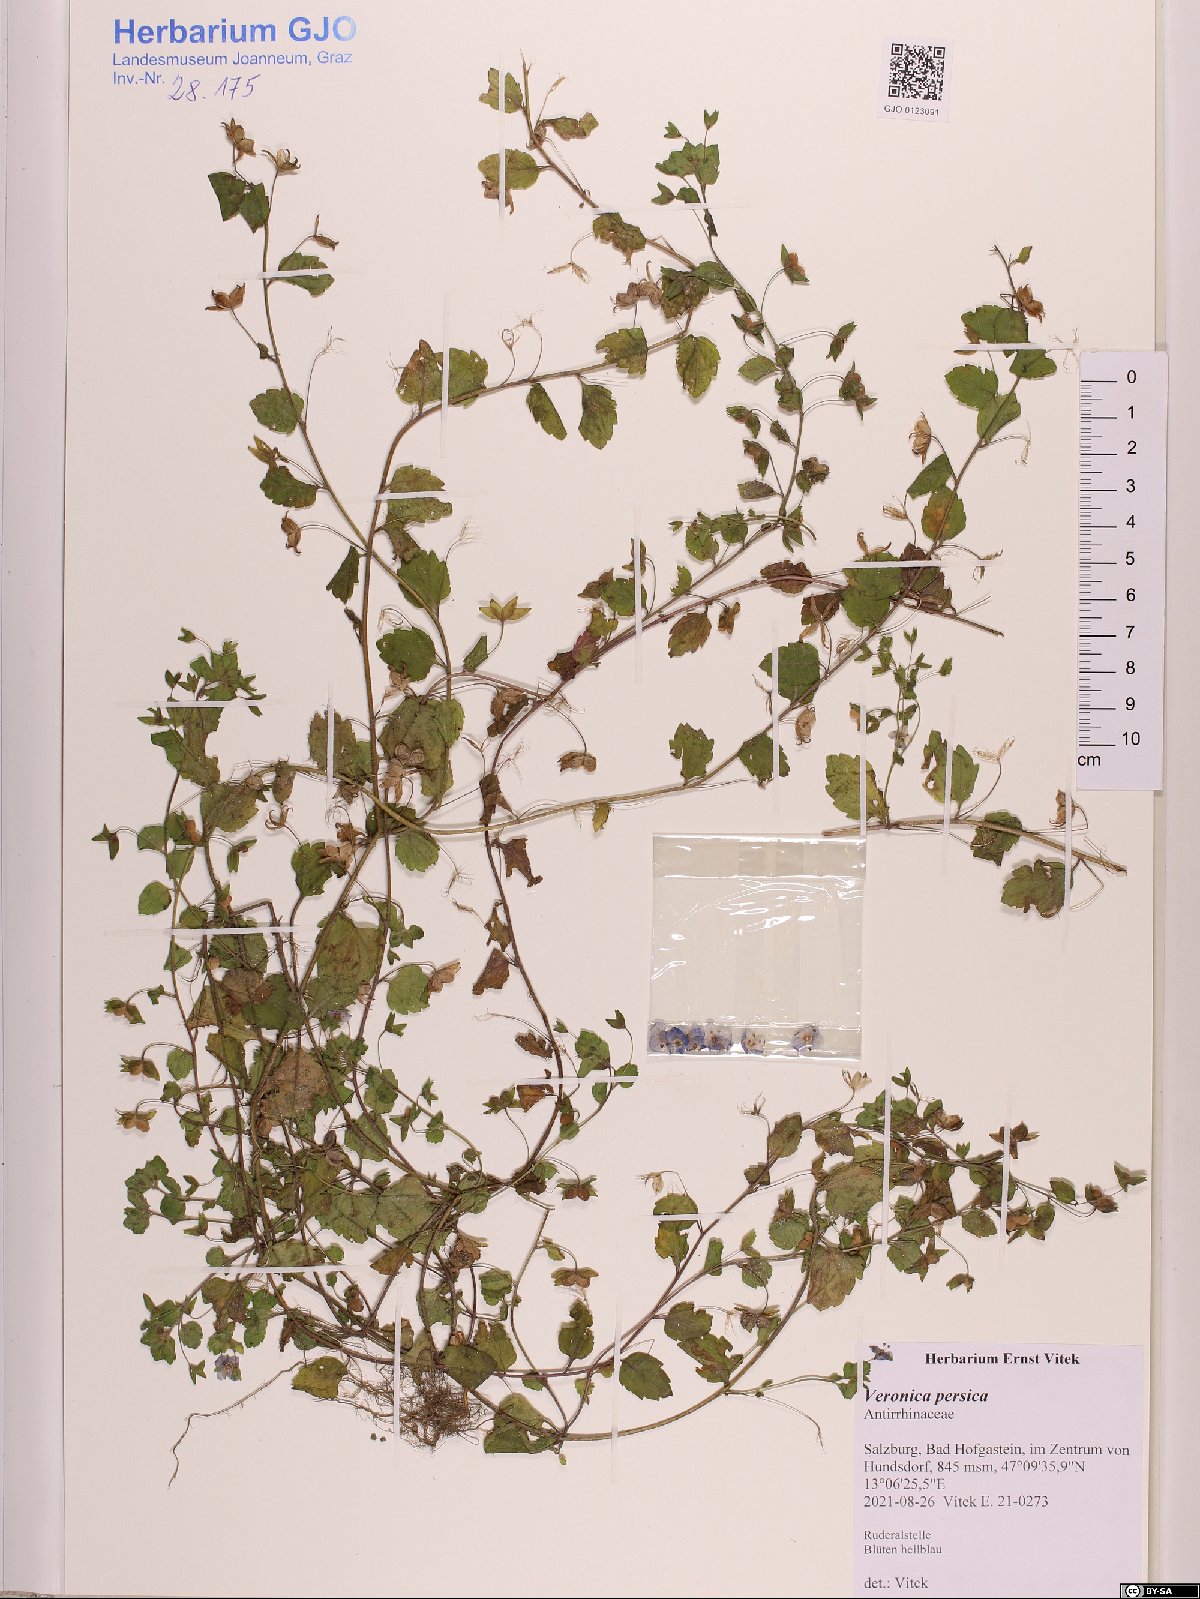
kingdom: Plantae
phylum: Tracheophyta
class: Magnoliopsida
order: Lamiales
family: Plantaginaceae
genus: Veronica
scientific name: Veronica persica
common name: Common field-speedwell
